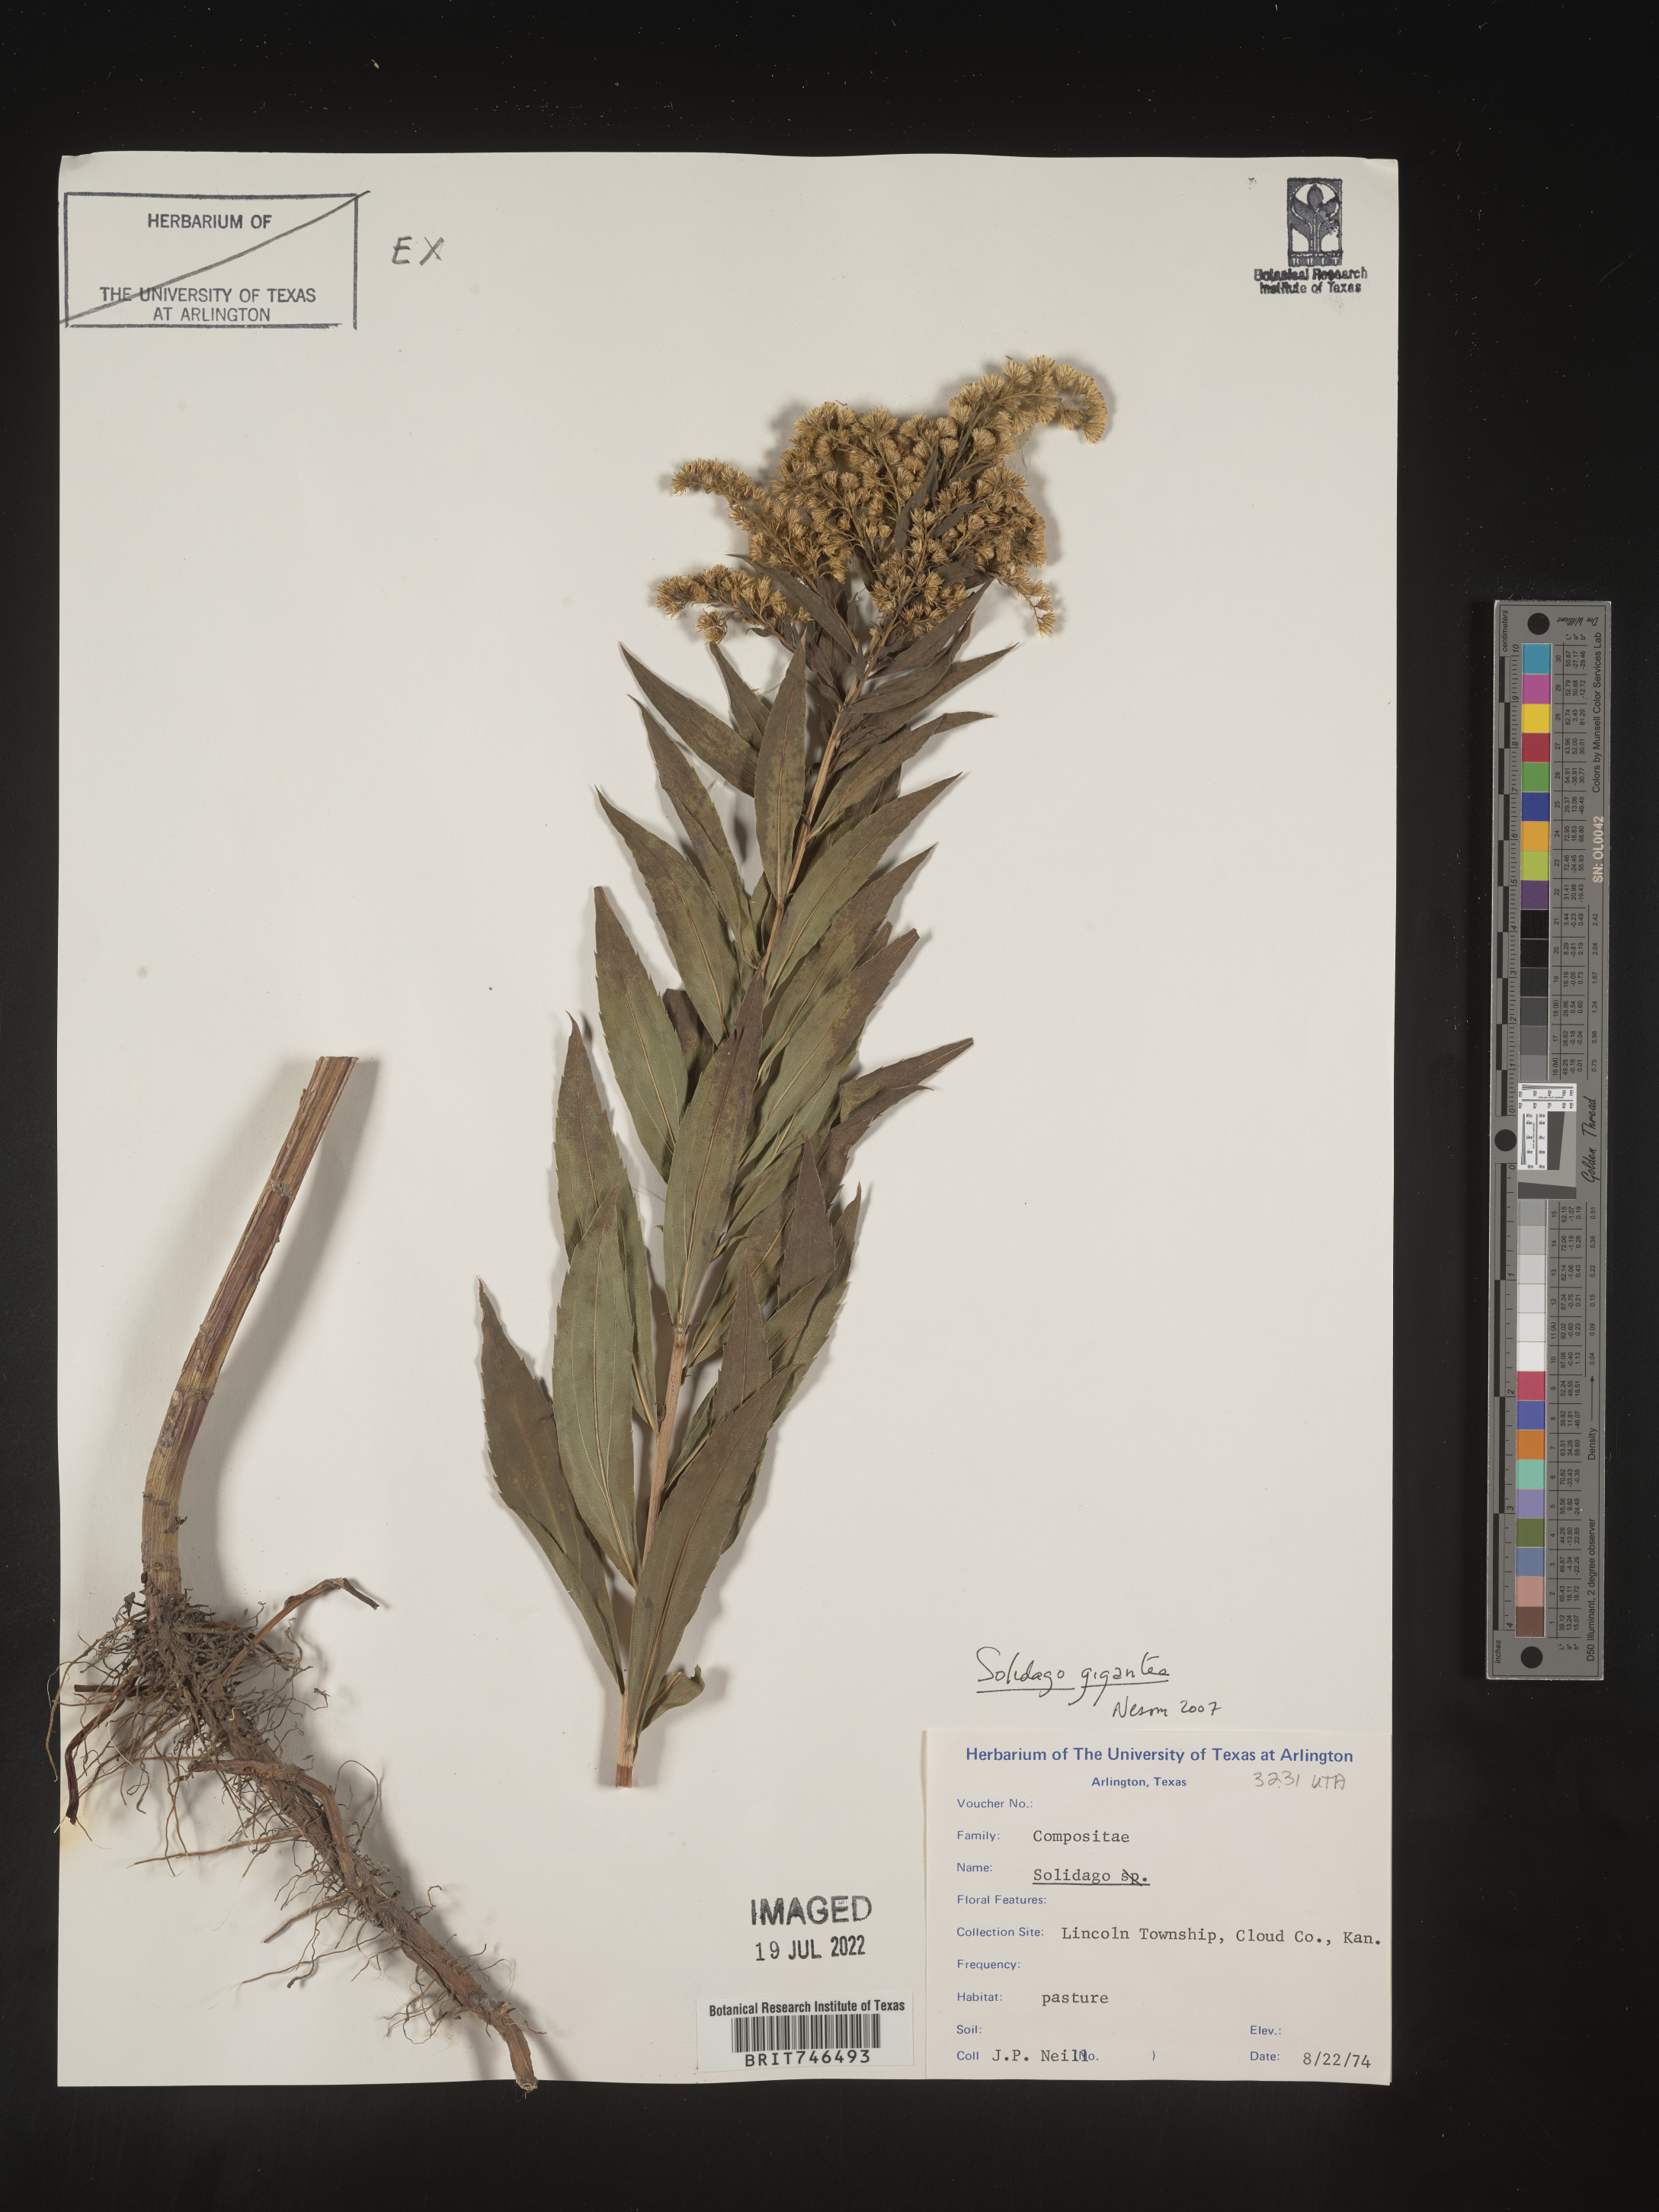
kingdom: Plantae
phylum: Tracheophyta
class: Magnoliopsida
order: Asterales
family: Asteraceae
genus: Solidago
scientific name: Solidago gigantea
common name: Giant goldenrod
